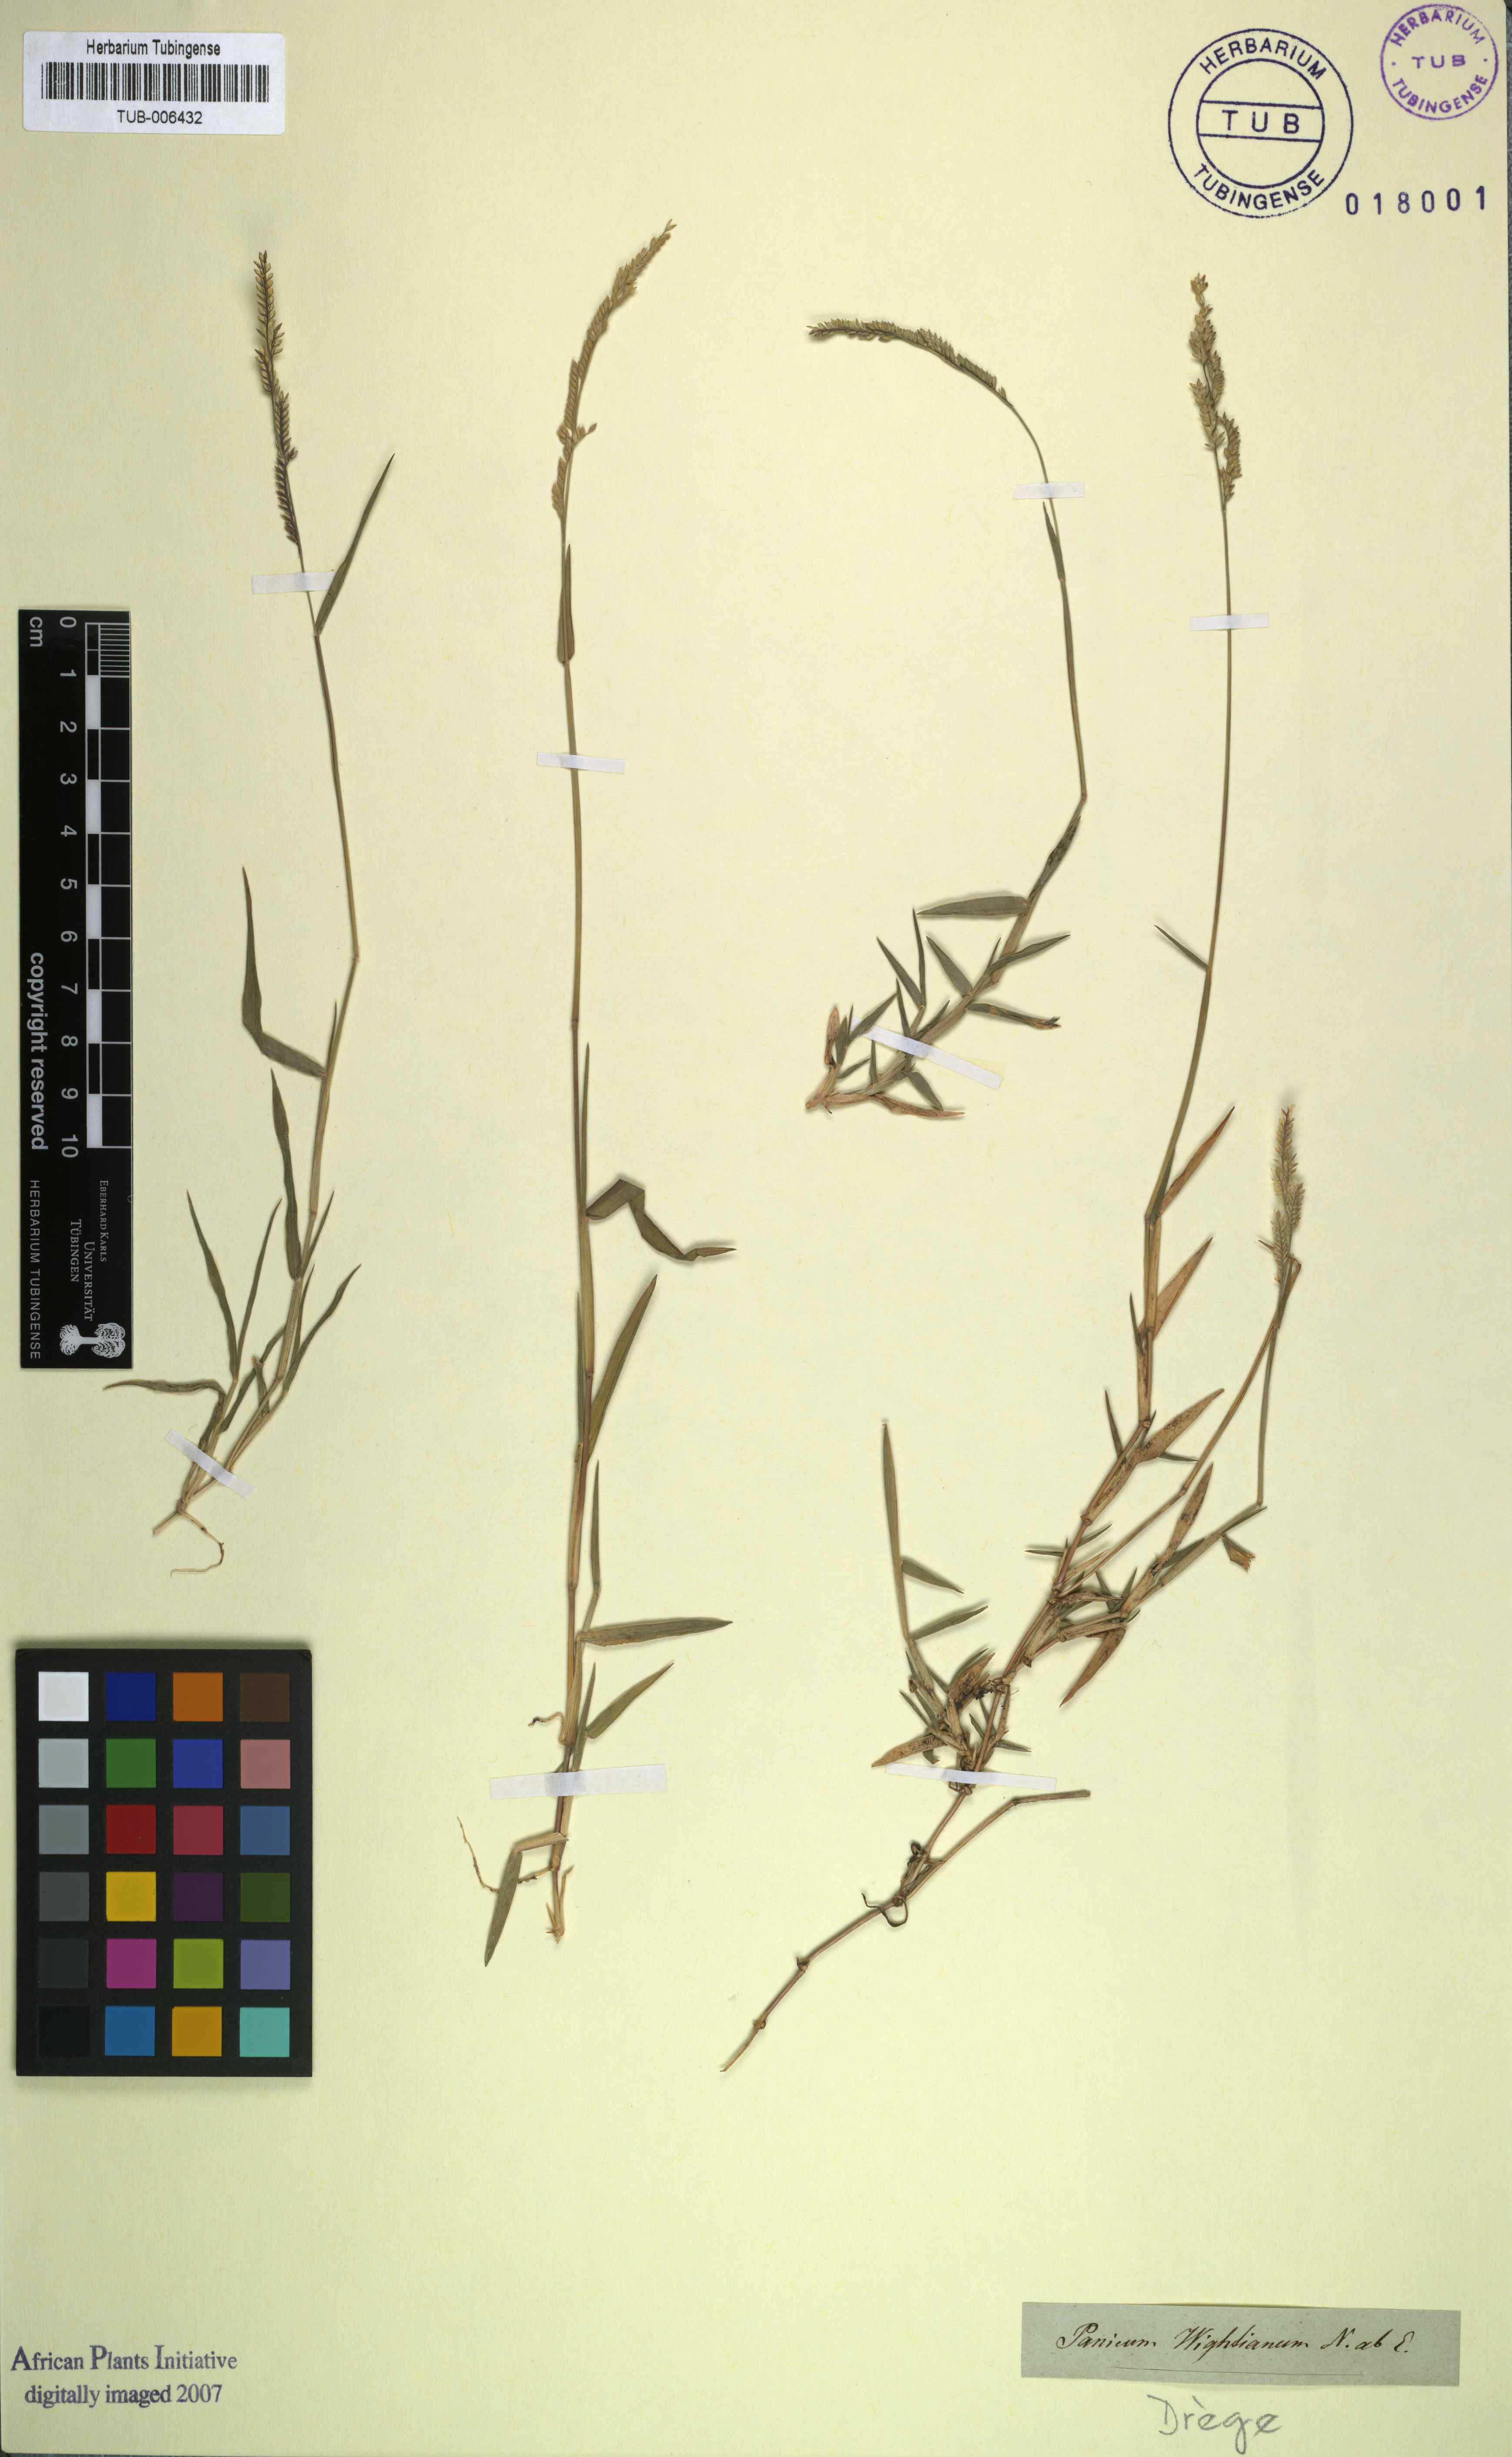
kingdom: Plantae
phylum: Tracheophyta
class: Liliopsida
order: Poales
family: Poaceae
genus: Moorochloa
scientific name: Moorochloa eruciformis
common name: Sweet signalgrass
